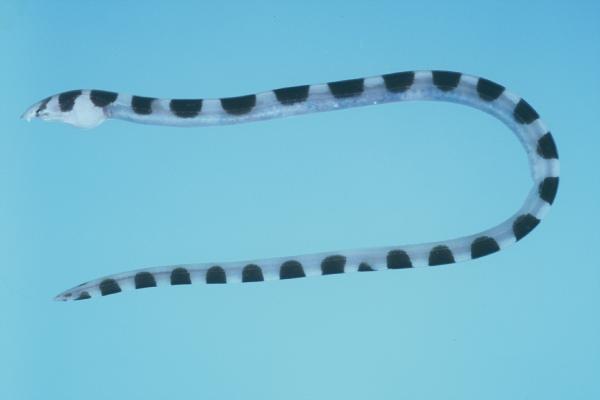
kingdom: Animalia
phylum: Chordata
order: Anguilliformes
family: Ophichthidae
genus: Leiuranus
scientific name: Leiuranus semicinctus
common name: Saddled snake eel
